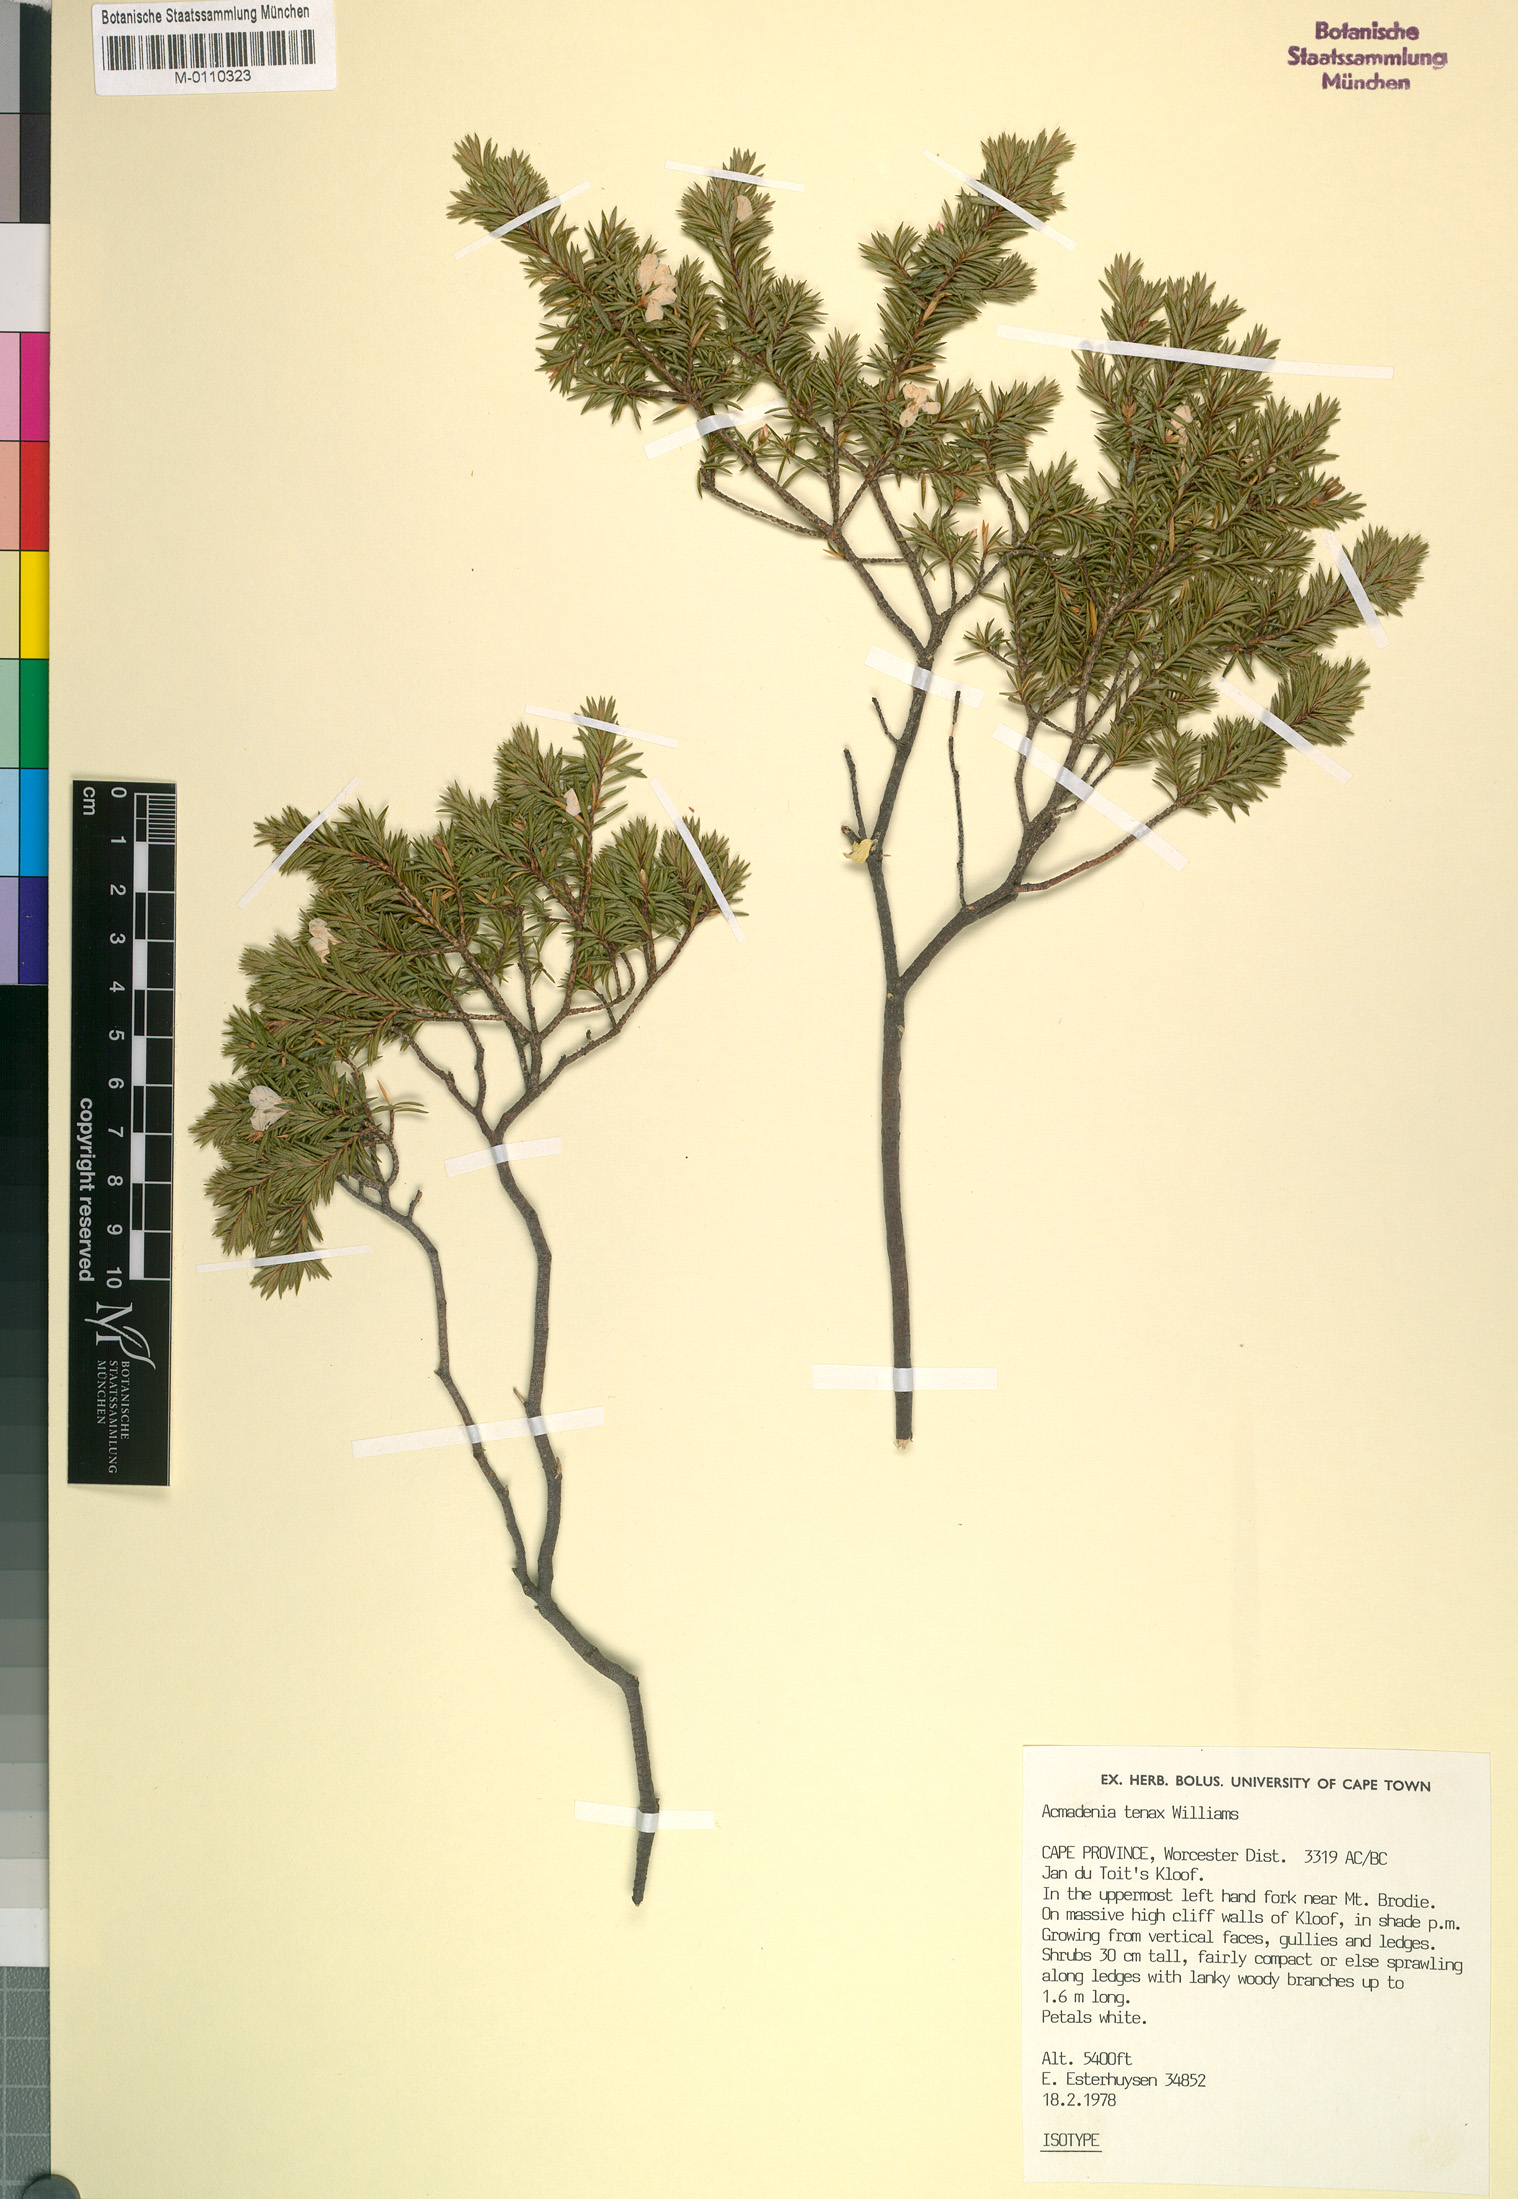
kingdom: Plantae
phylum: Tracheophyta
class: Magnoliopsida
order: Sapindales
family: Rutaceae
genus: Acmadenia
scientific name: Acmadenia tenax
